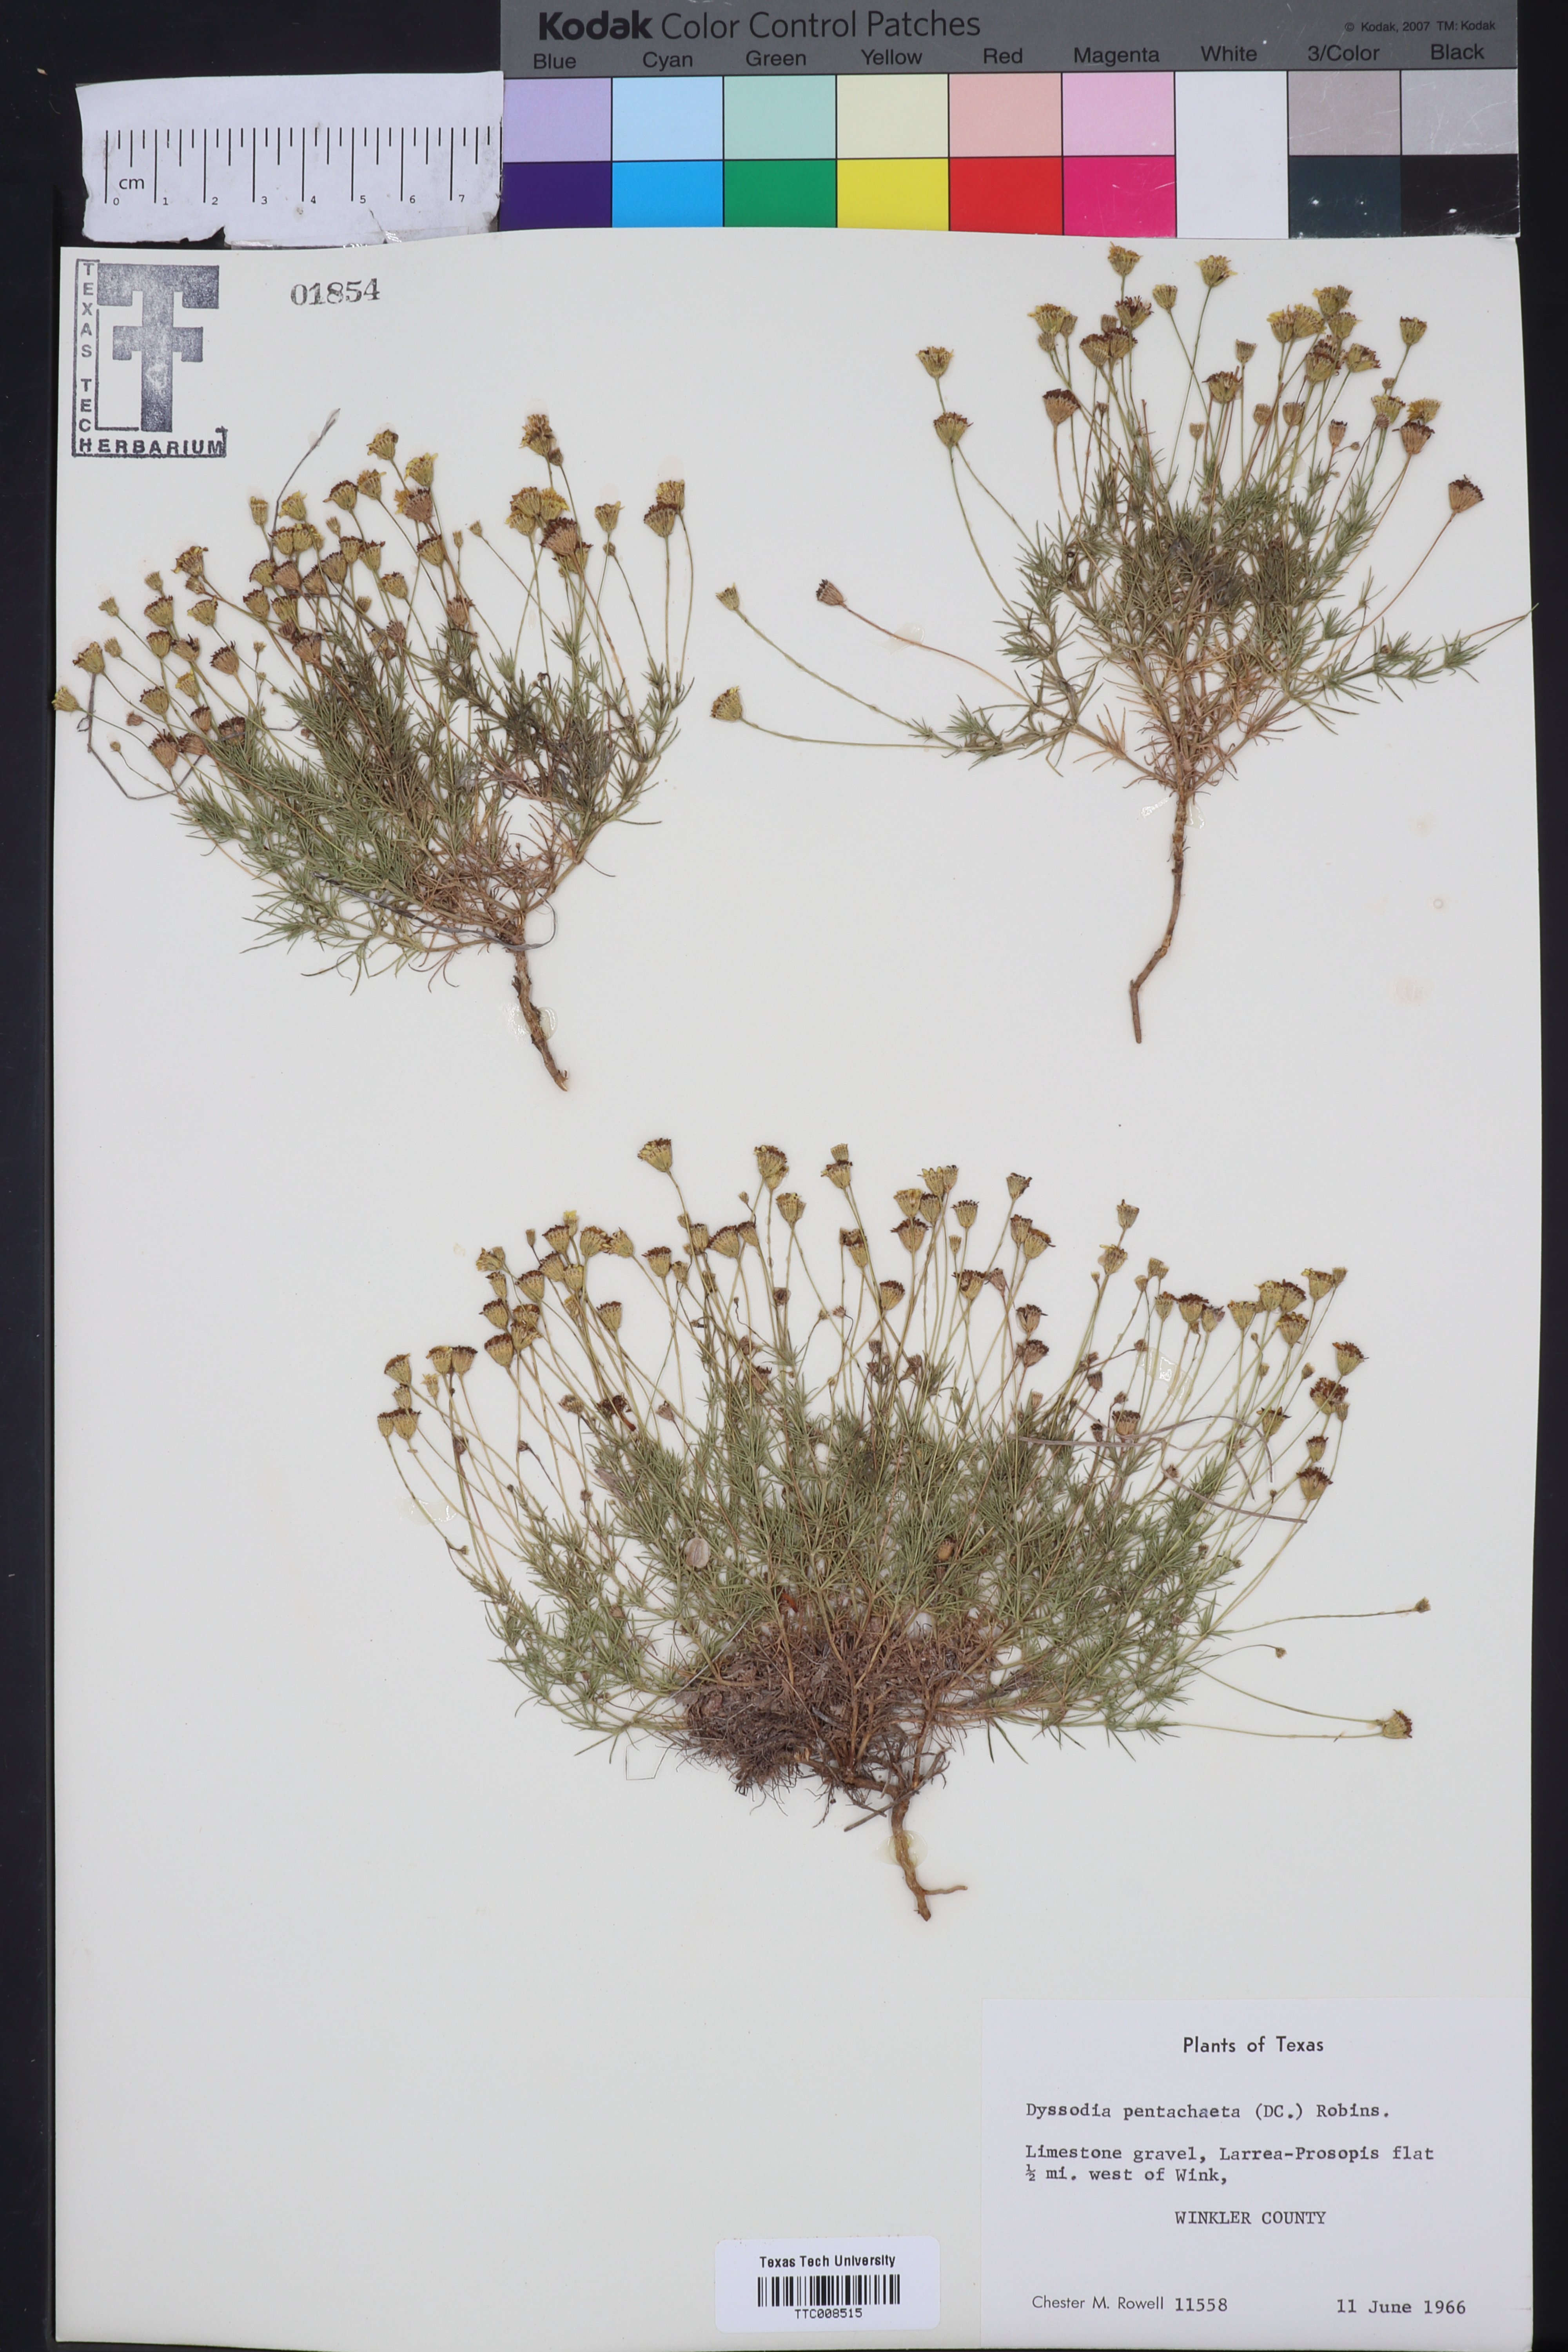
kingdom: Plantae
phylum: Tracheophyta
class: Magnoliopsida
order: Asterales
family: Asteraceae
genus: Thymophylla
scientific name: Thymophylla pentachaeta
